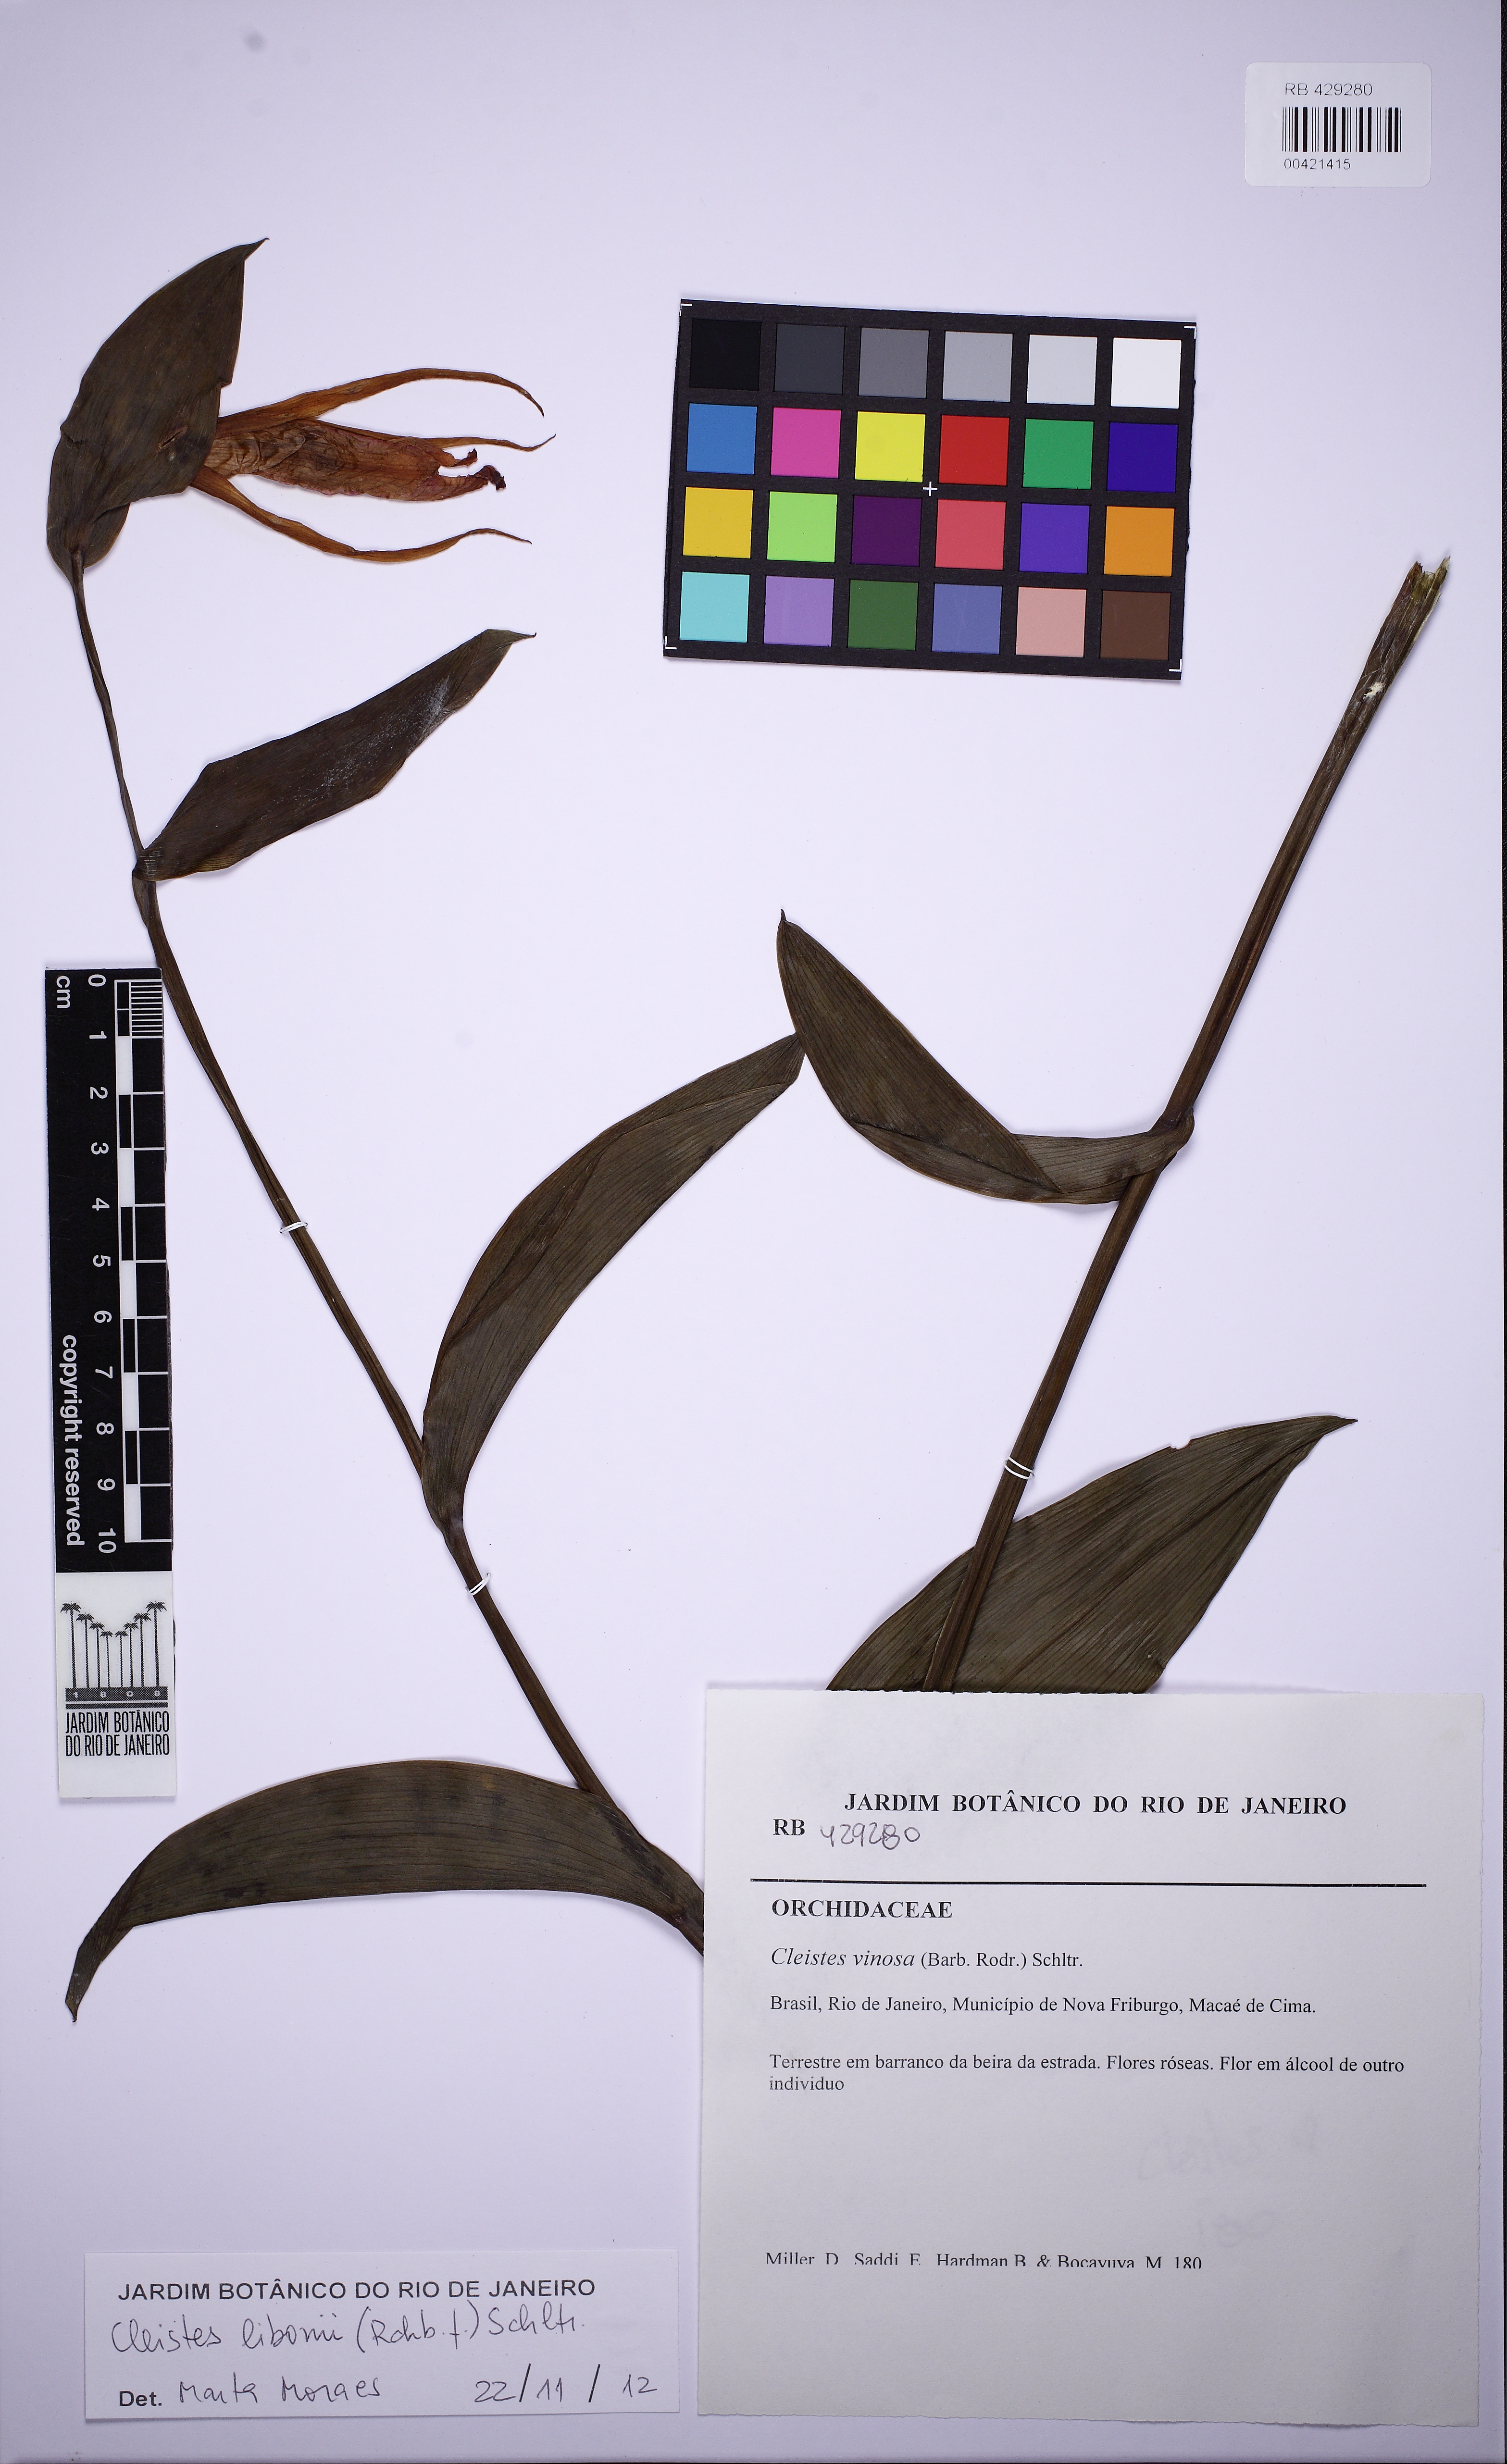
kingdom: Plantae
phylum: Tracheophyta
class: Liliopsida
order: Asparagales
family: Orchidaceae
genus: Cleistes
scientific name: Cleistes libonii
